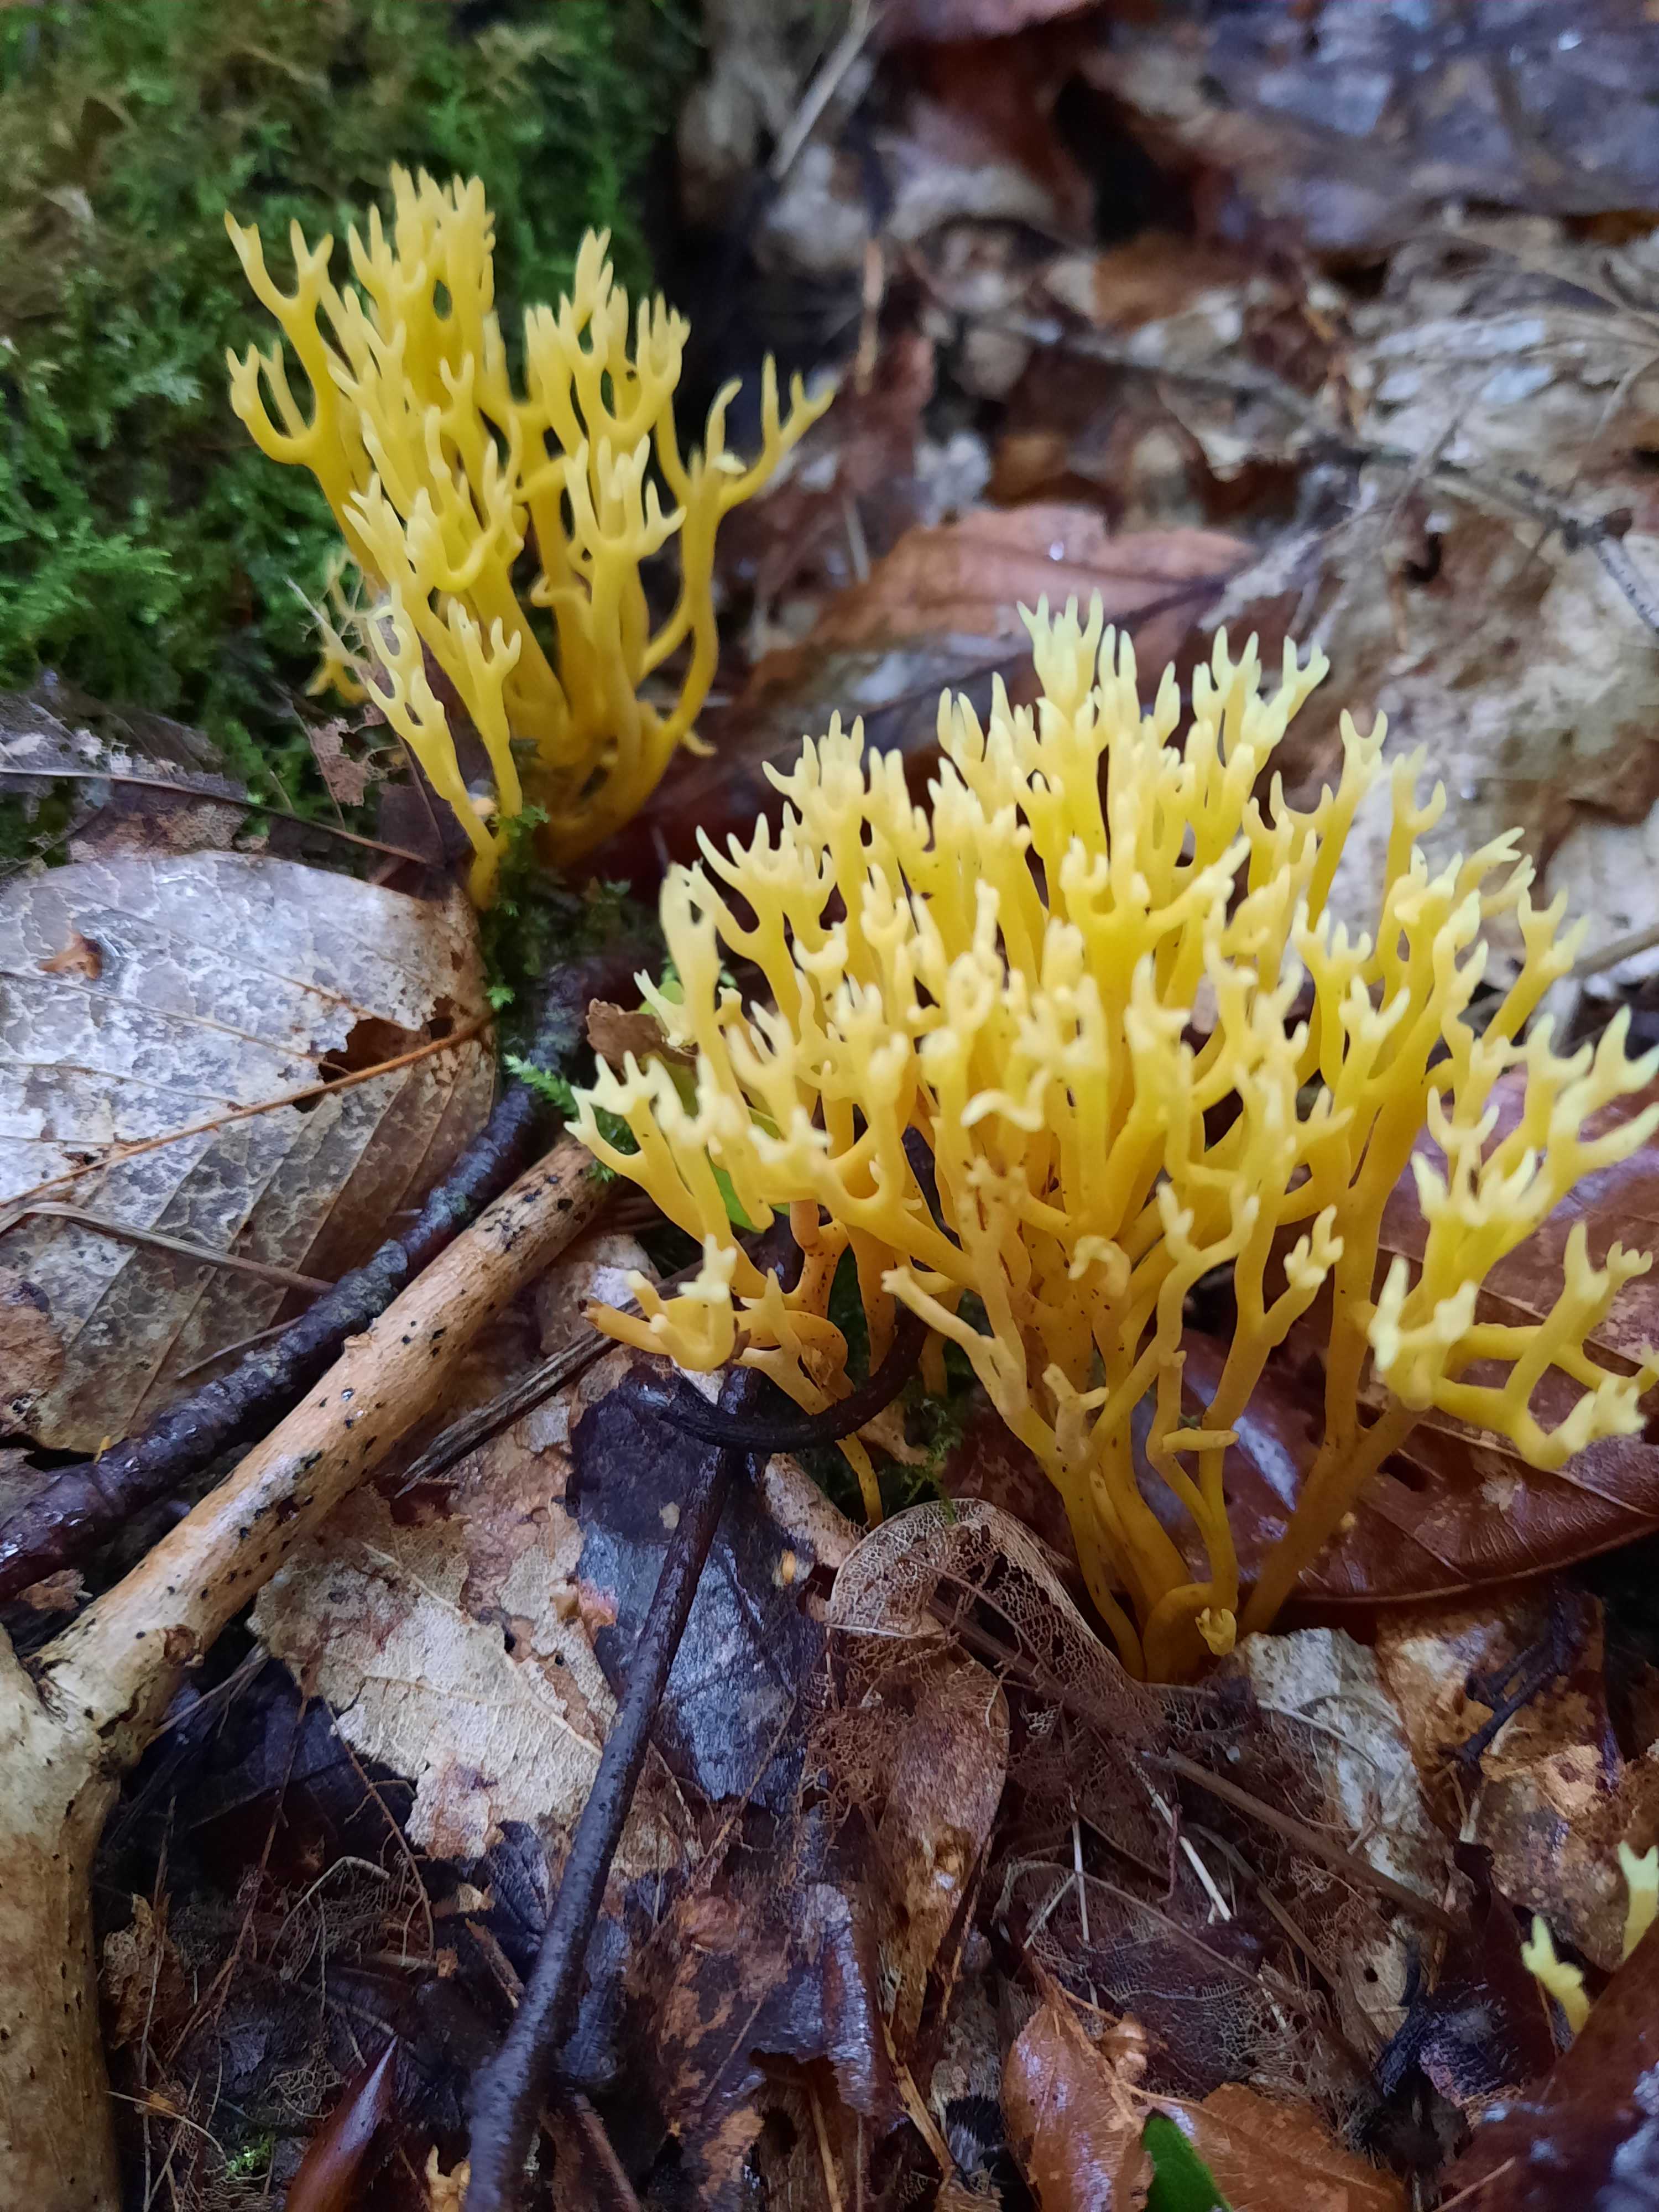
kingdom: Fungi
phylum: Basidiomycota
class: Agaricomycetes
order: Agaricales
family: Clavariaceae
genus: Clavulinopsis
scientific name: Clavulinopsis corniculata
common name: eng-køllesvamp
